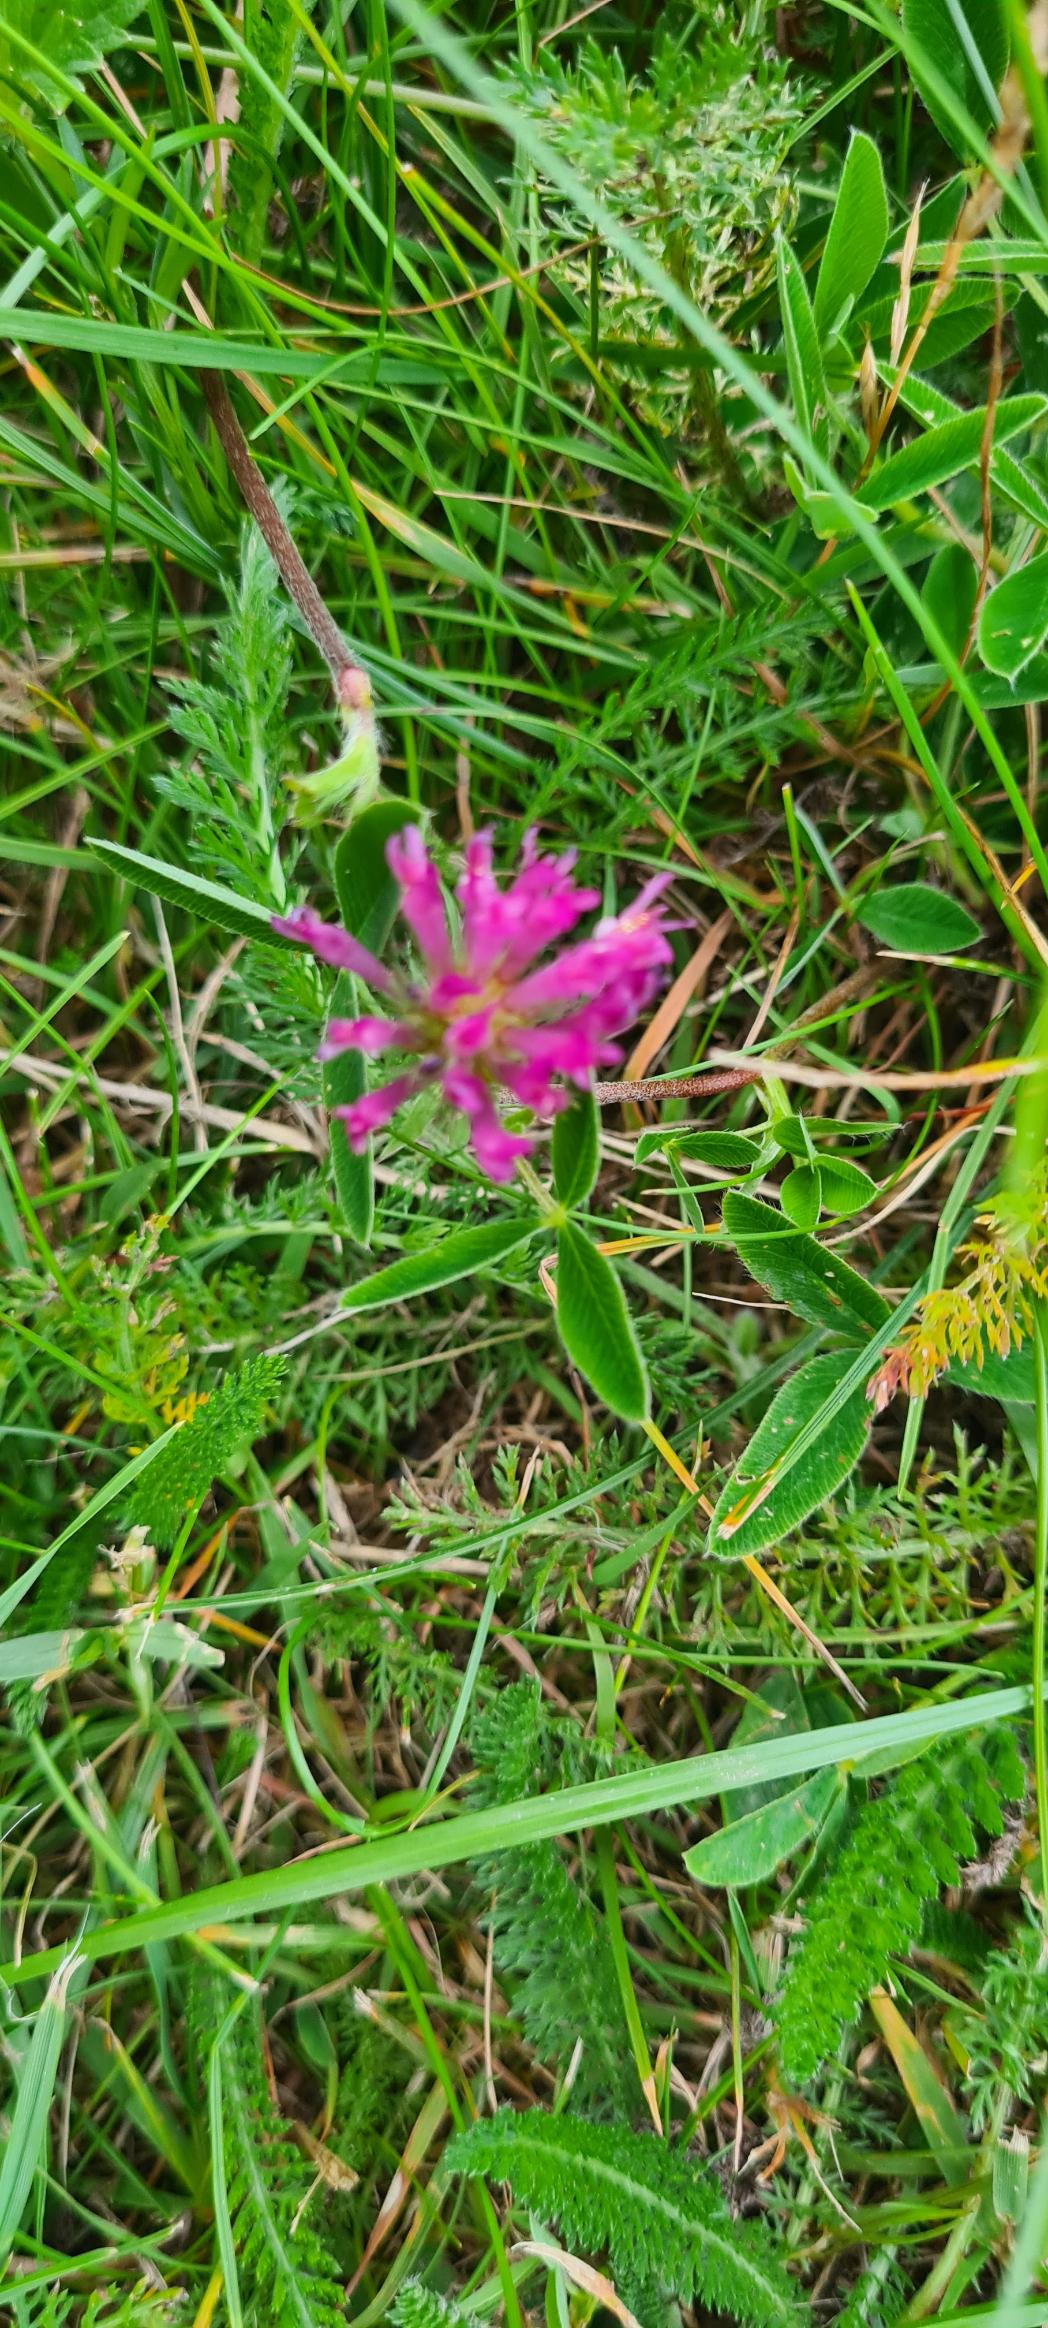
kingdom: Plantae
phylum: Tracheophyta
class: Magnoliopsida
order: Fabales
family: Fabaceae
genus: Trifolium
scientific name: Trifolium medium
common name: Bugtet kløver
